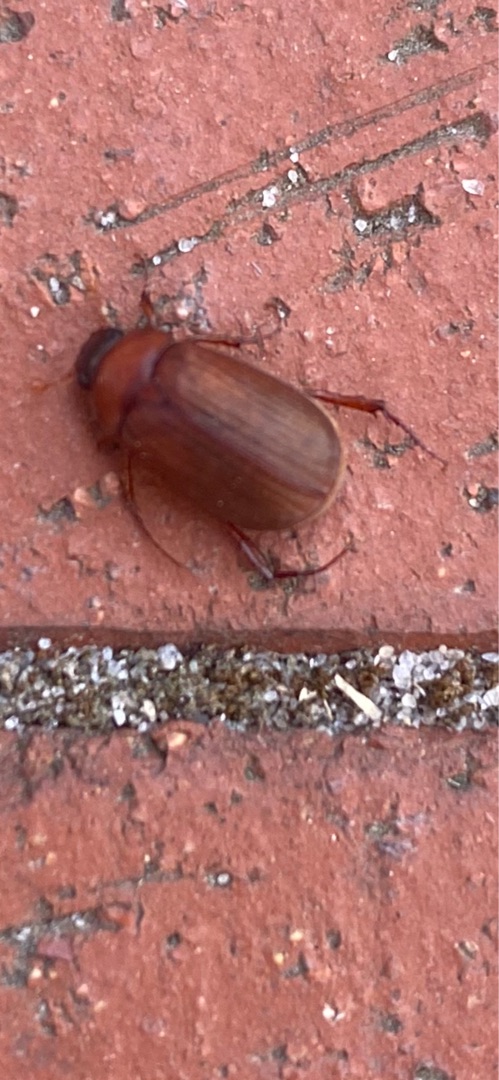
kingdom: Animalia
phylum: Arthropoda
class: Insecta
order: Coleoptera
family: Scarabaeidae
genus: Serica
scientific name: Serica brunnea
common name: Natoldenborre
